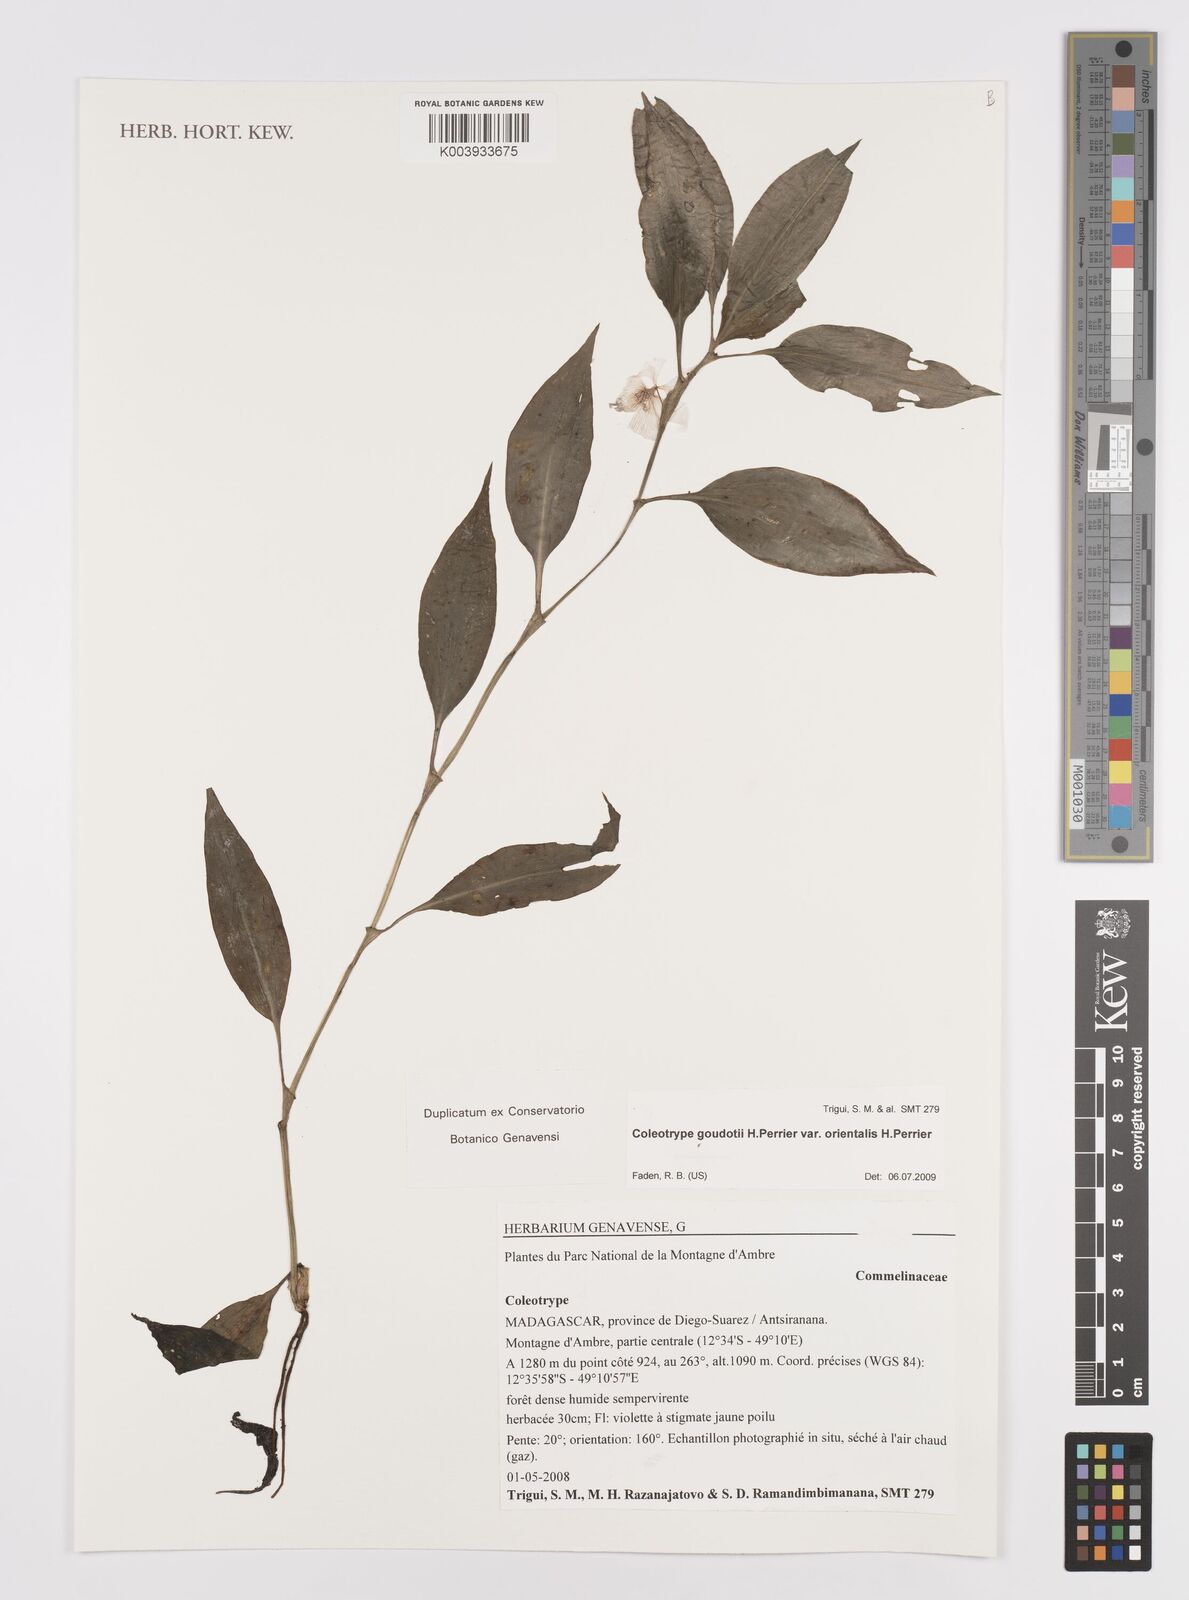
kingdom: Plantae
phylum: Tracheophyta
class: Liliopsida
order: Commelinales
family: Commelinaceae
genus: Coleotrype
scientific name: Coleotrype goudotii
